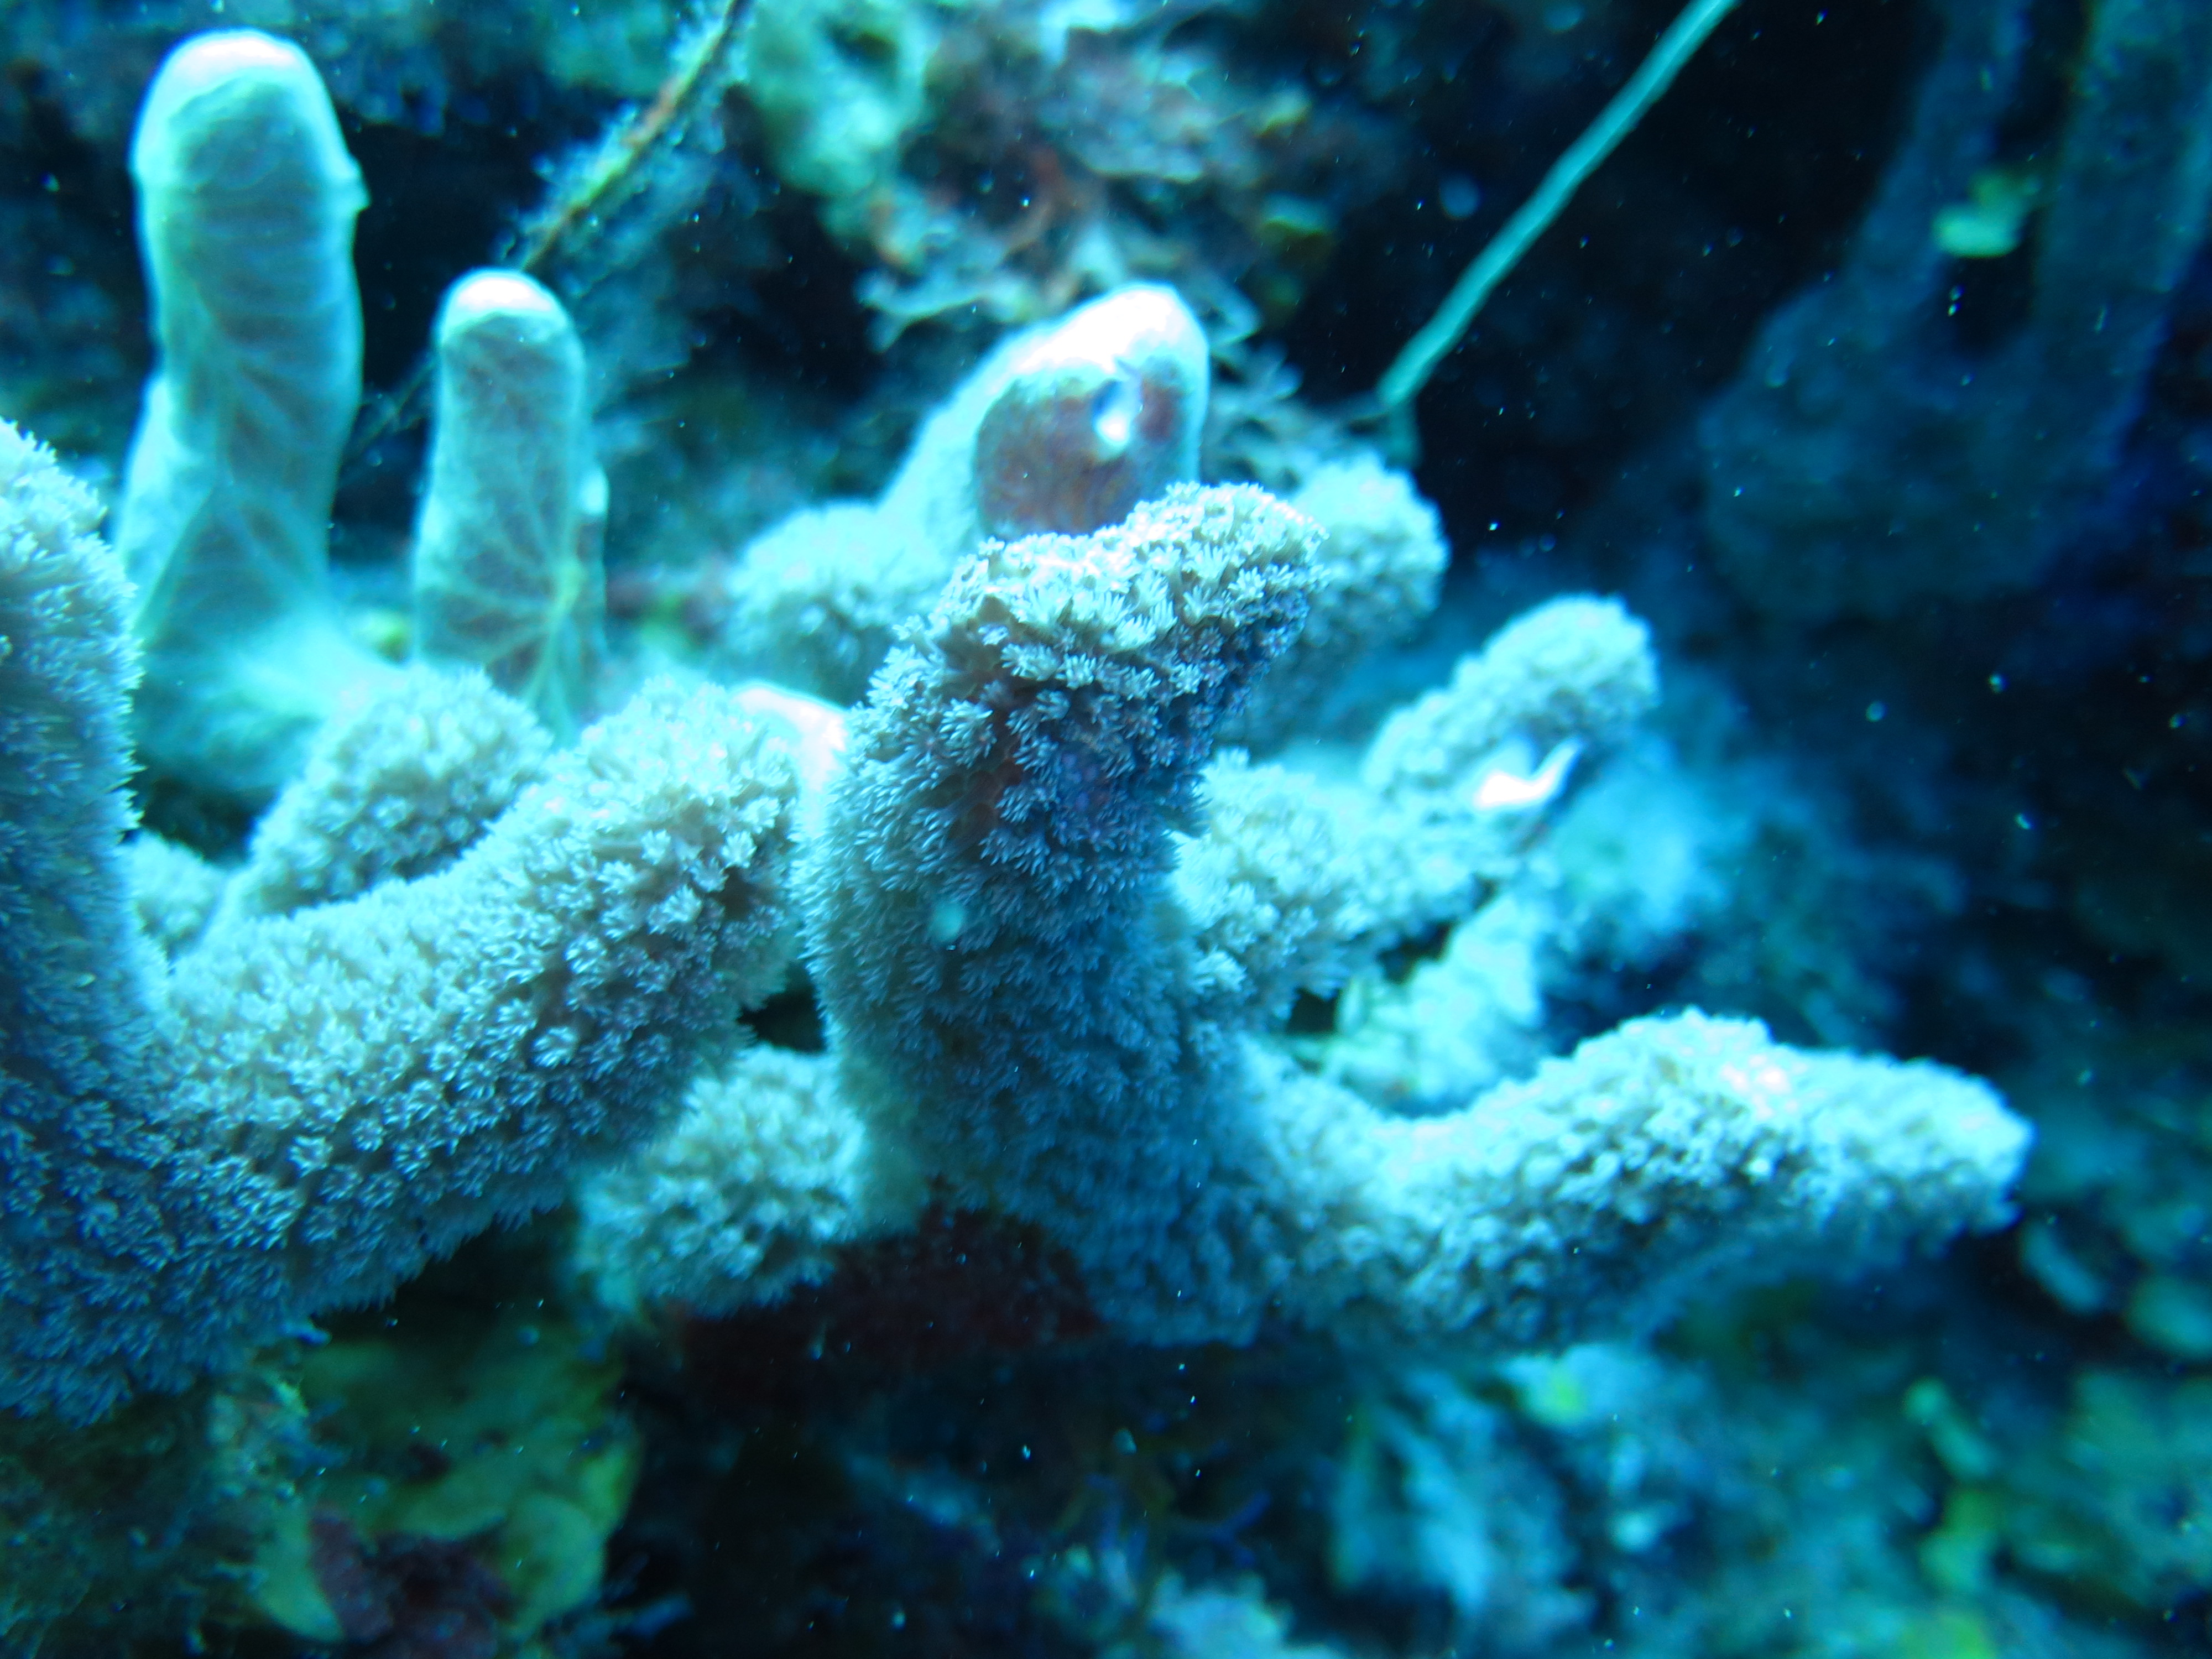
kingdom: Animalia
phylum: Cnidaria
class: Anthozoa
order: Scleractinia
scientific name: Scleractinia
